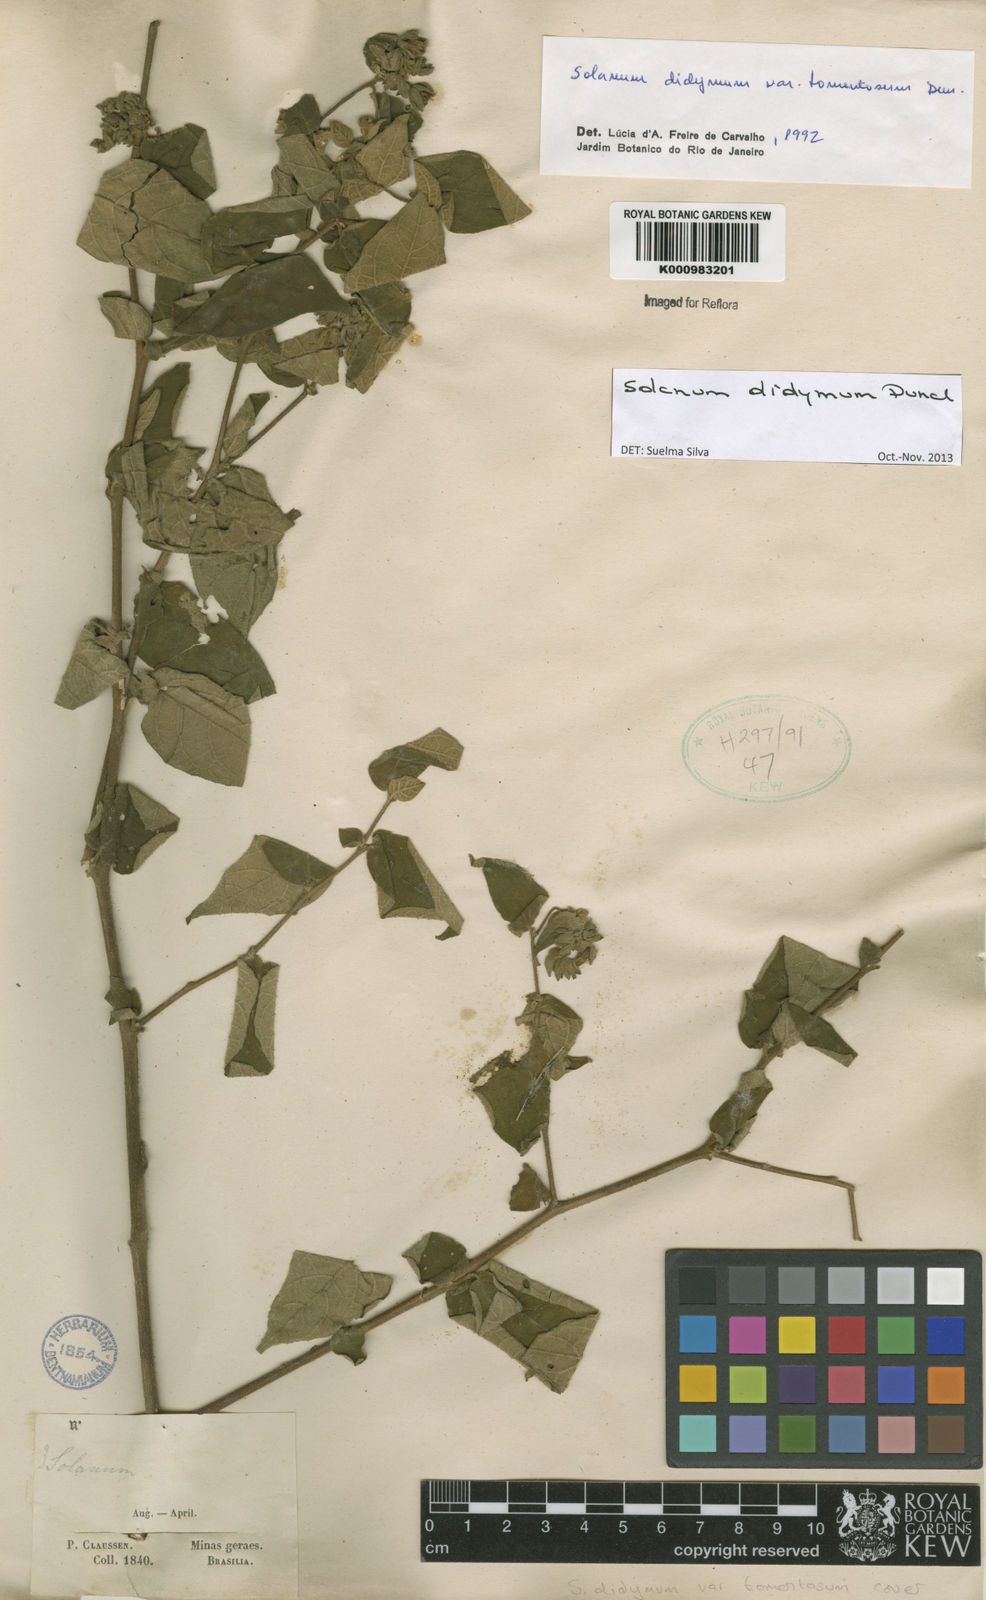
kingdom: Plantae
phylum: Tracheophyta
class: Magnoliopsida
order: Solanales
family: Solanaceae
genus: Solanum
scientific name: Solanum didymum
